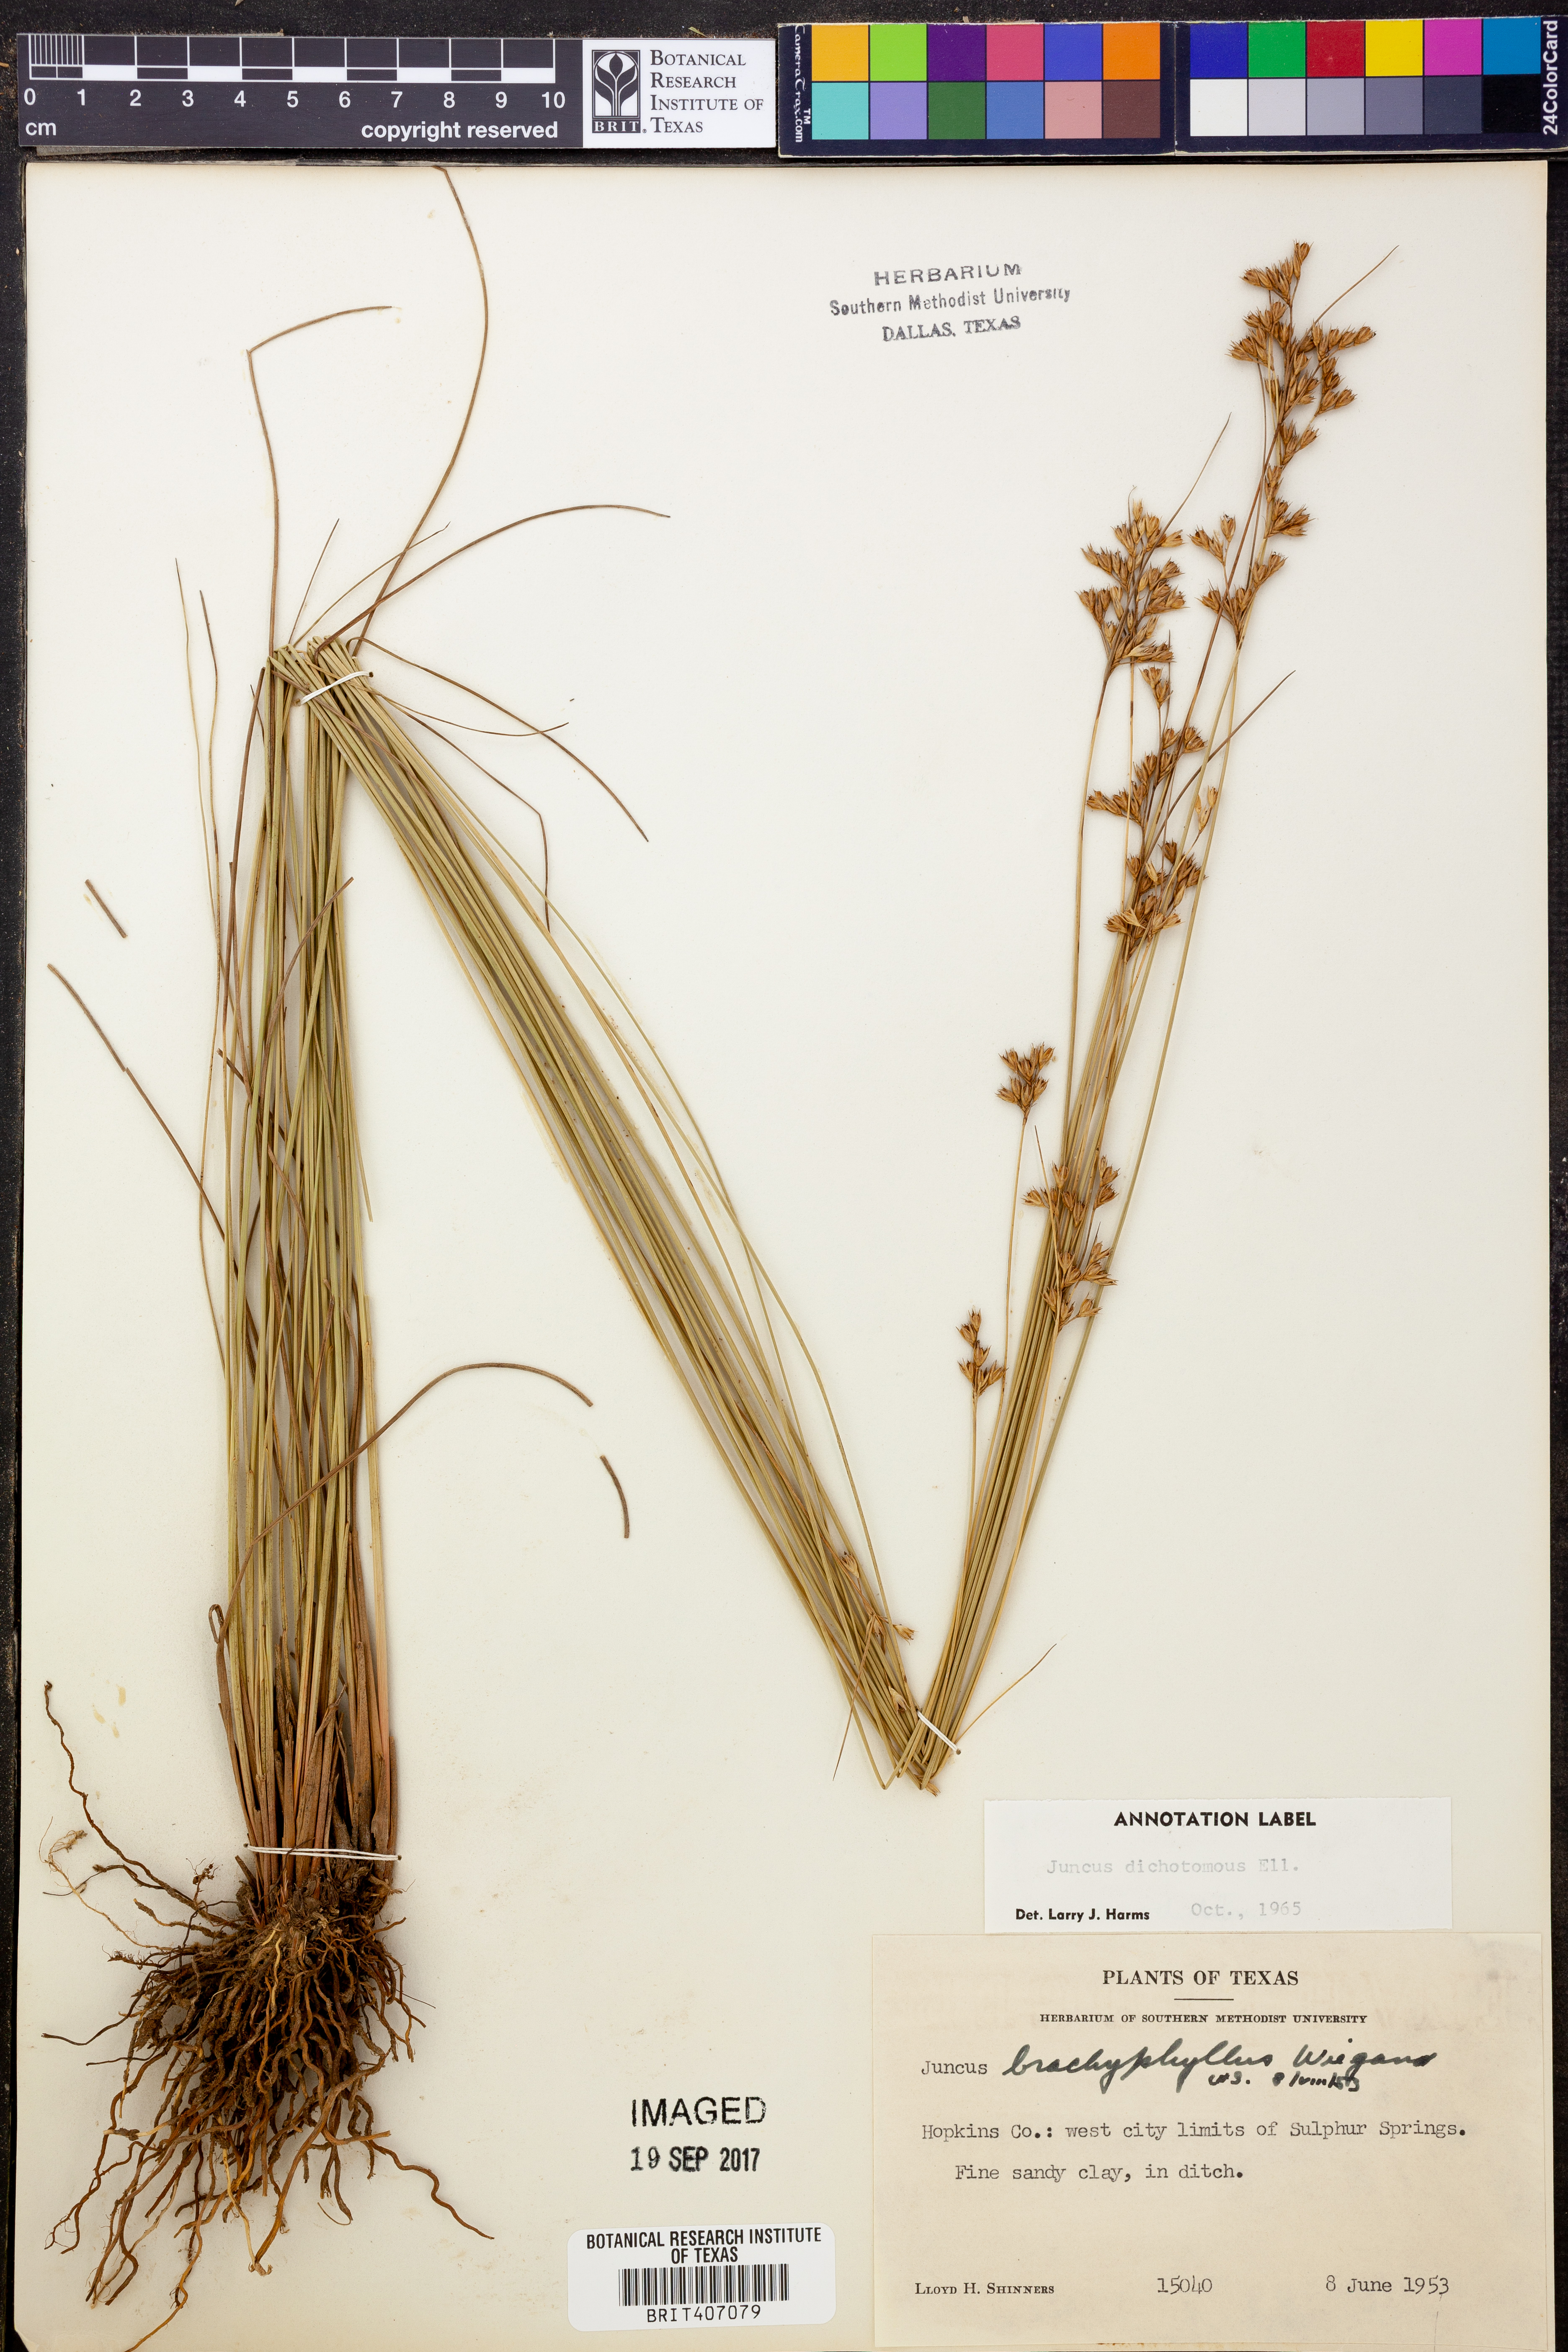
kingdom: Plantae
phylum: Tracheophyta
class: Liliopsida
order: Poales
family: Juncaceae
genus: Juncus
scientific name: Juncus dichotomus
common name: Forked rush
